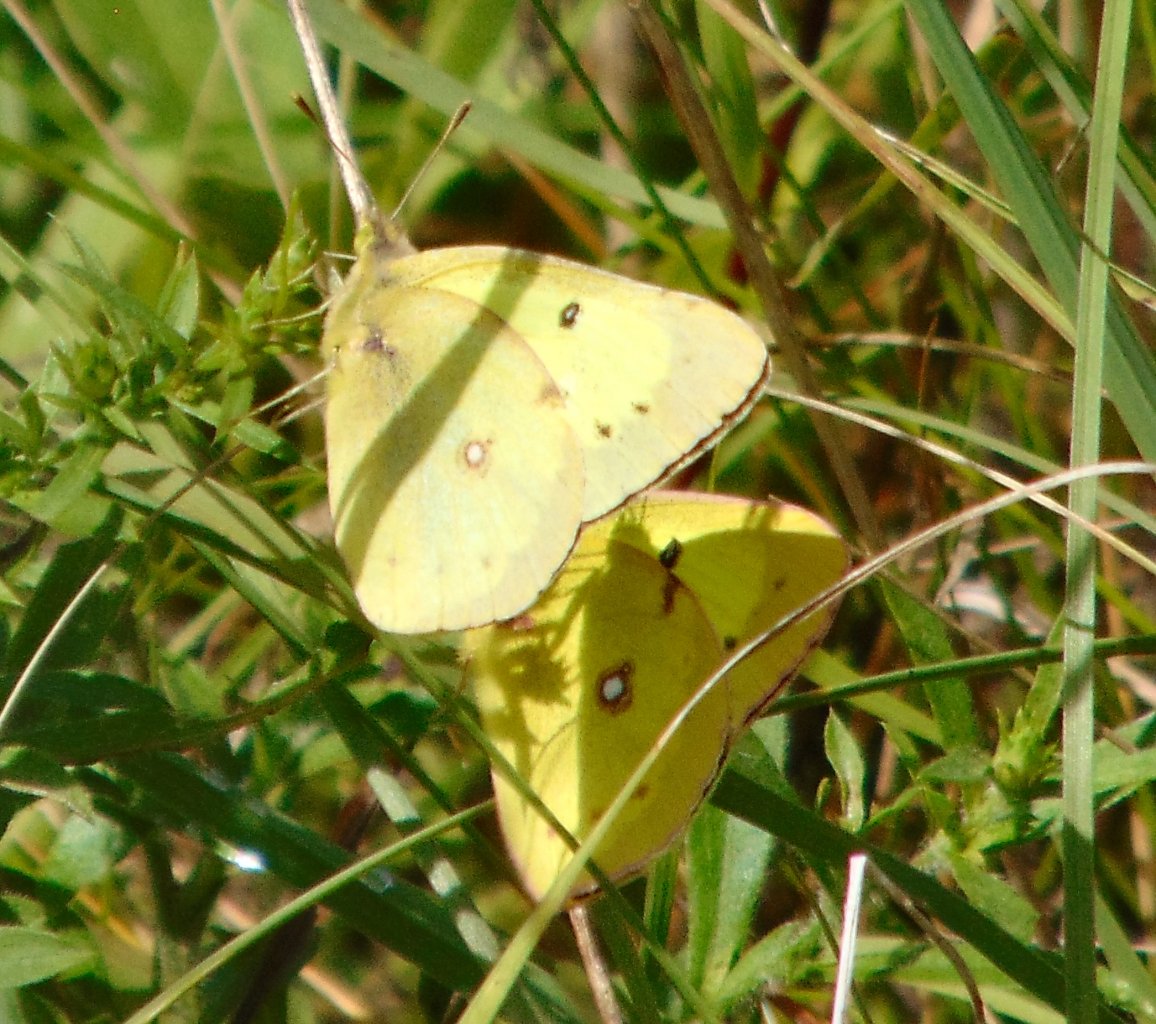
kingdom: Animalia
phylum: Arthropoda
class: Insecta
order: Lepidoptera
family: Pieridae
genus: Colias
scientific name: Colias philodice
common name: Clouded Sulphur
